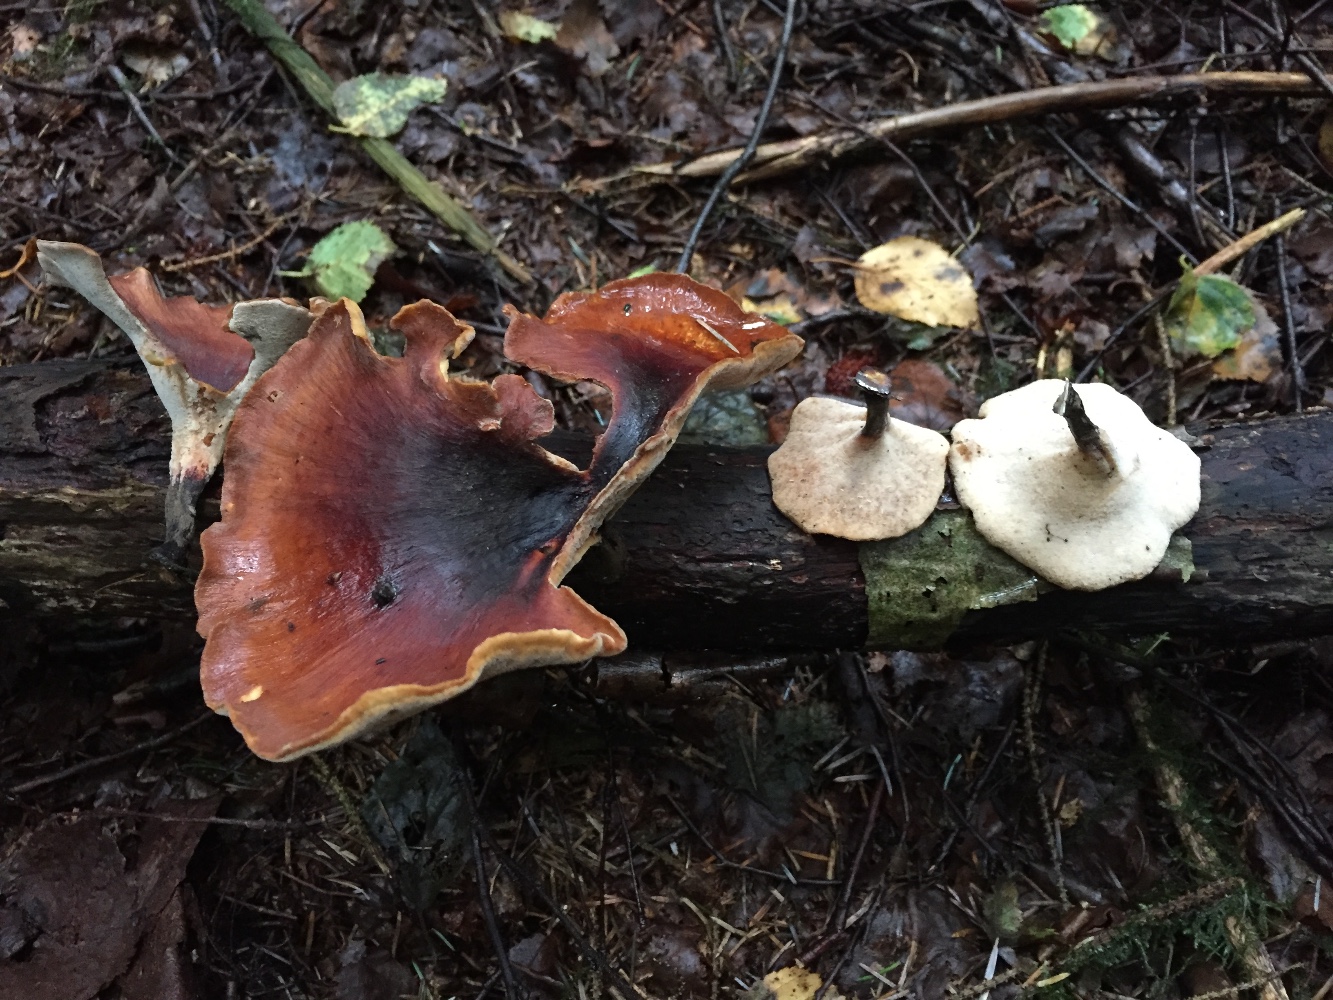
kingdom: Fungi
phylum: Basidiomycota
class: Agaricomycetes
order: Polyporales
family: Polyporaceae
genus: Picipes
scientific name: Picipes badius
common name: kastaniebrun stilkporesvamp
